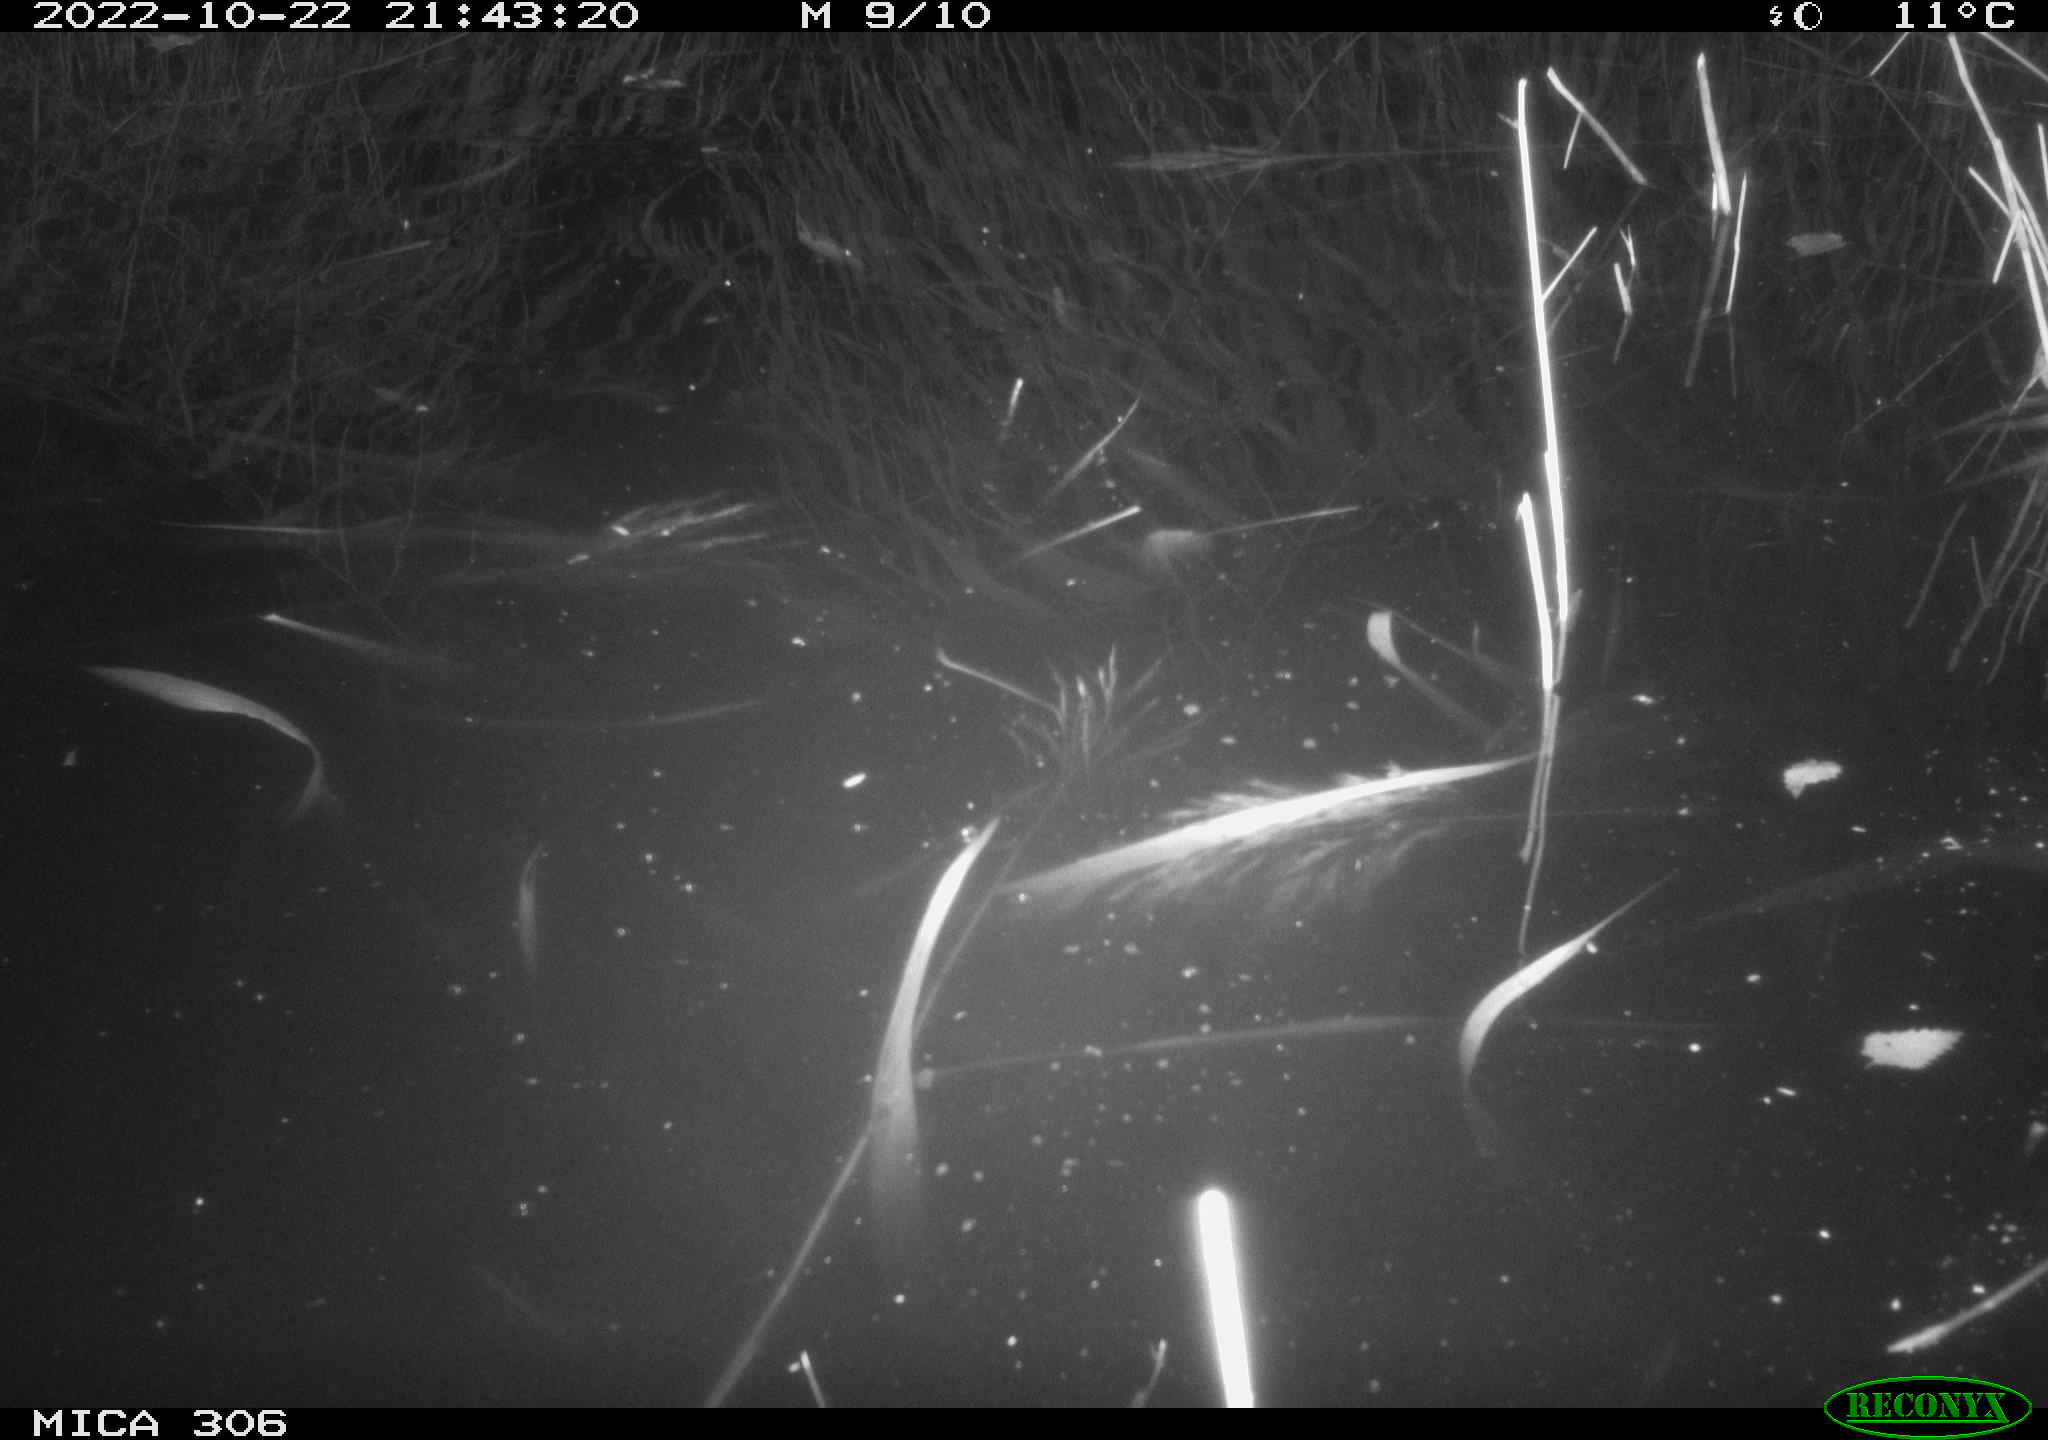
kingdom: Animalia
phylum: Chordata
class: Mammalia
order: Rodentia
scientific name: Rodentia
